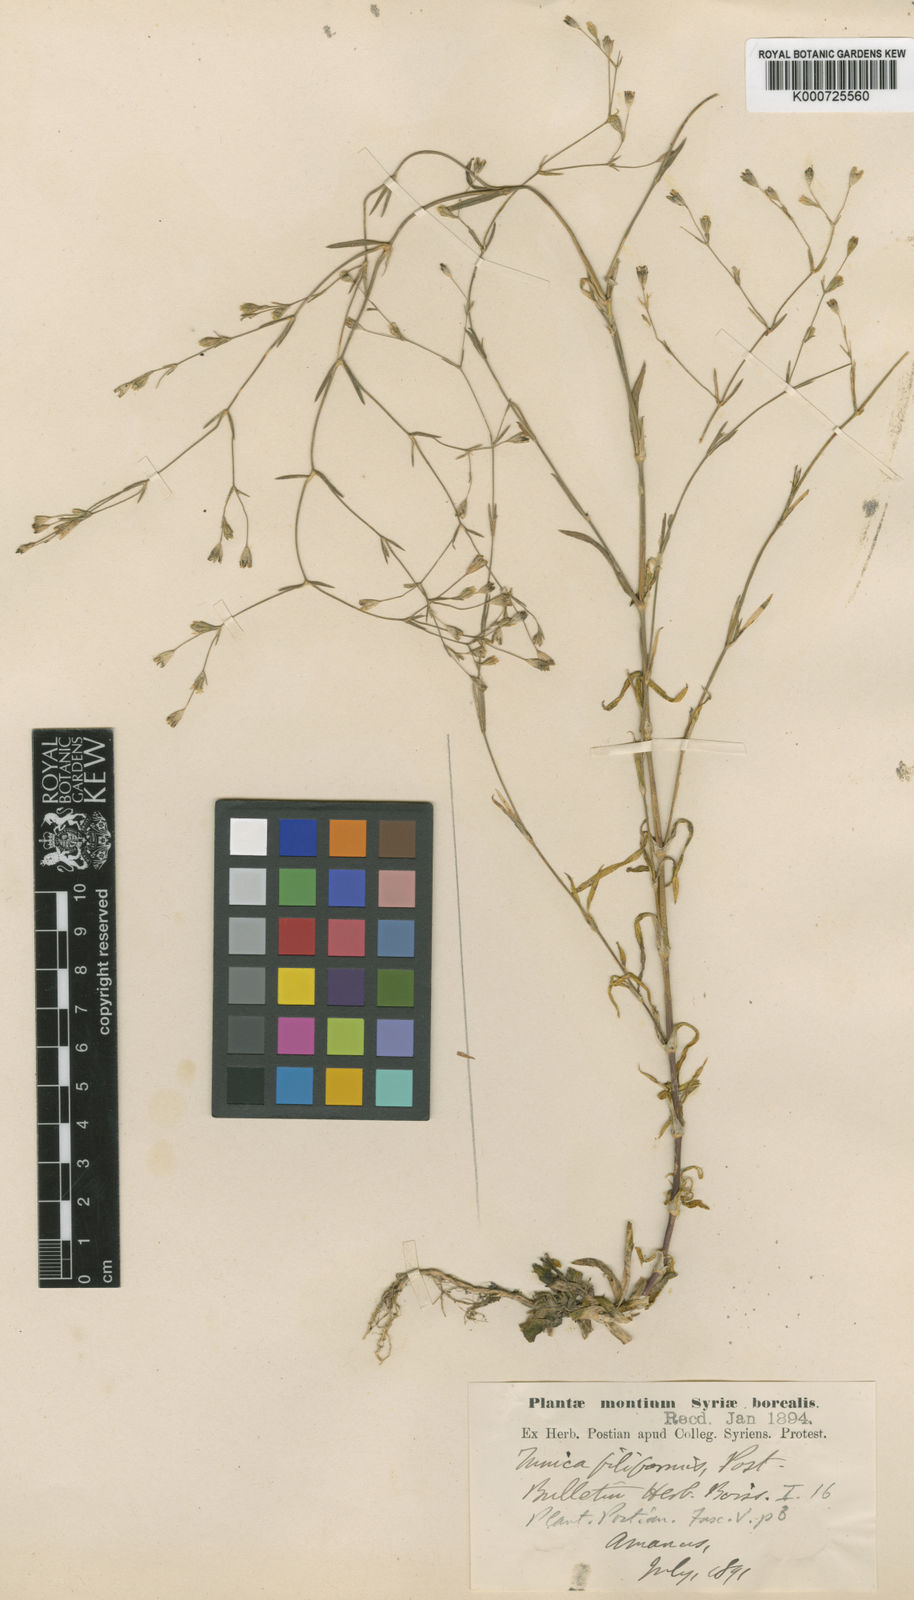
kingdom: Plantae
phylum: Tracheophyta
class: Magnoliopsida
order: Caryophyllales
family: Caryophyllaceae
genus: Petrorhagia
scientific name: Petrorhagia alpina
